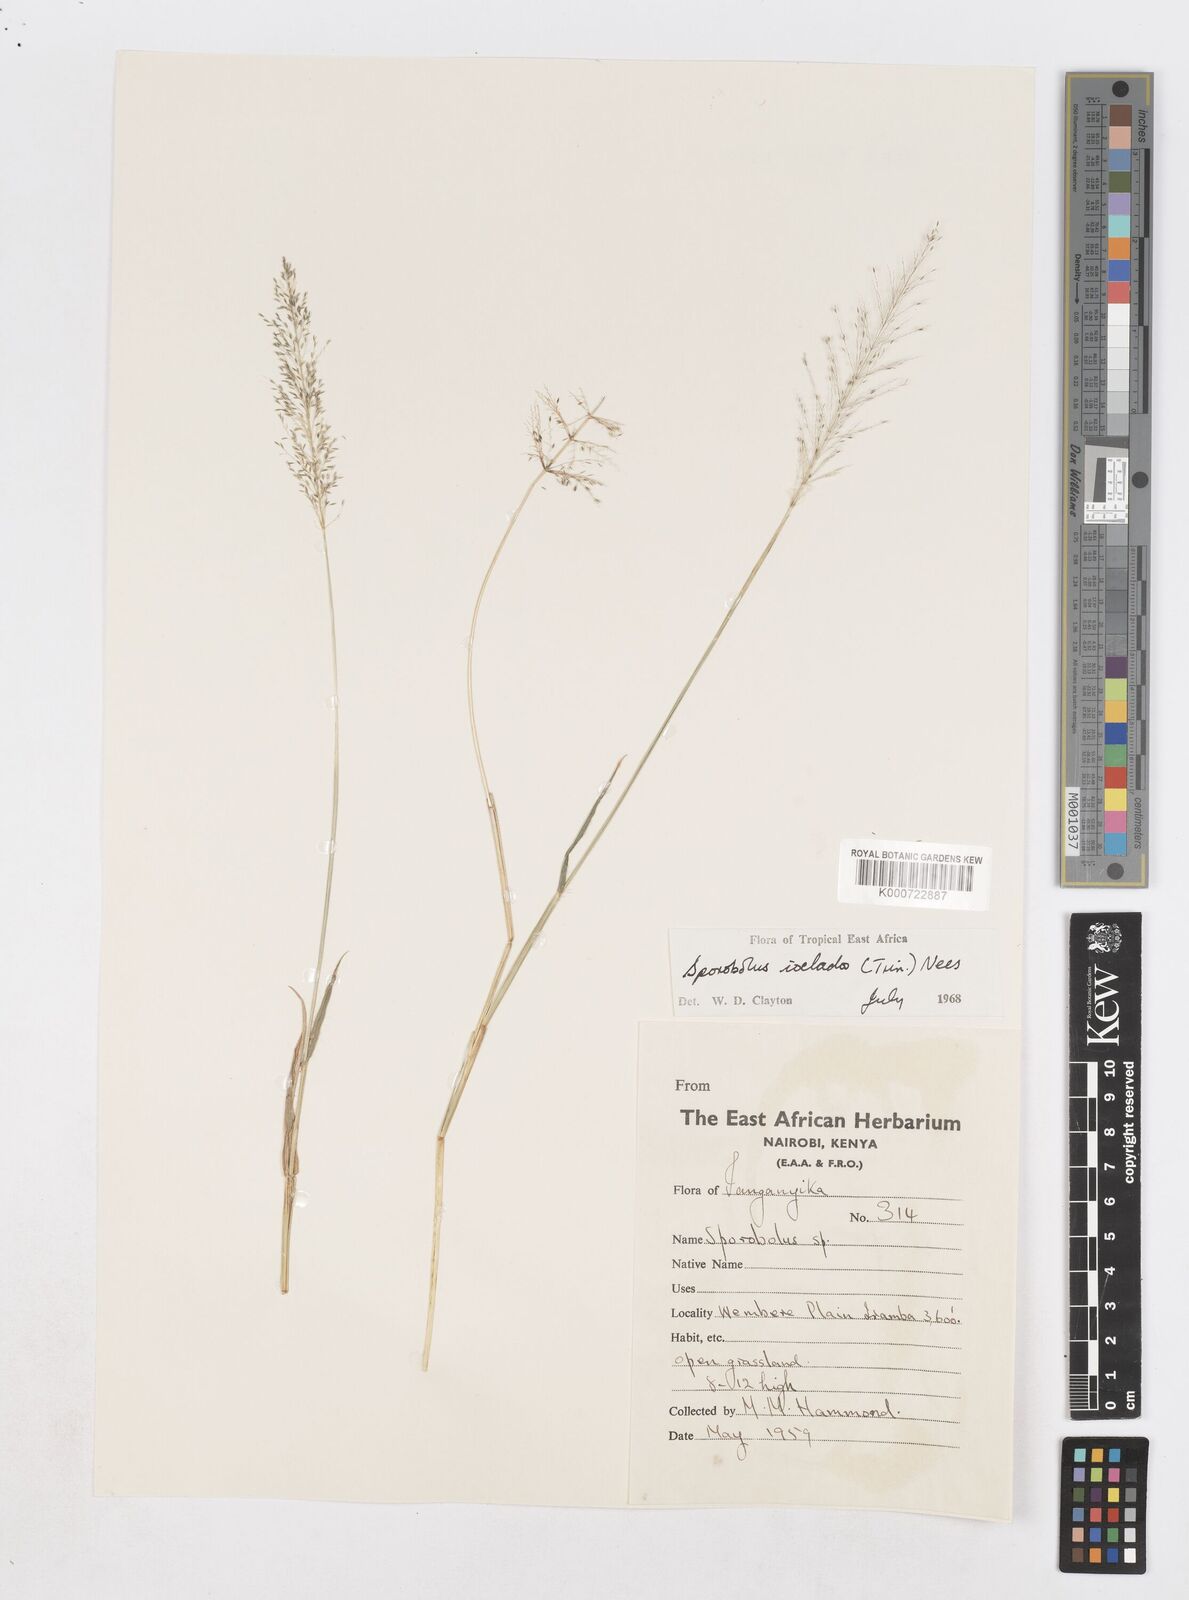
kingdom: Plantae
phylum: Tracheophyta
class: Liliopsida
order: Poales
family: Poaceae
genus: Sporobolus
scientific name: Sporobolus ioclados
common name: Pan dropseed
